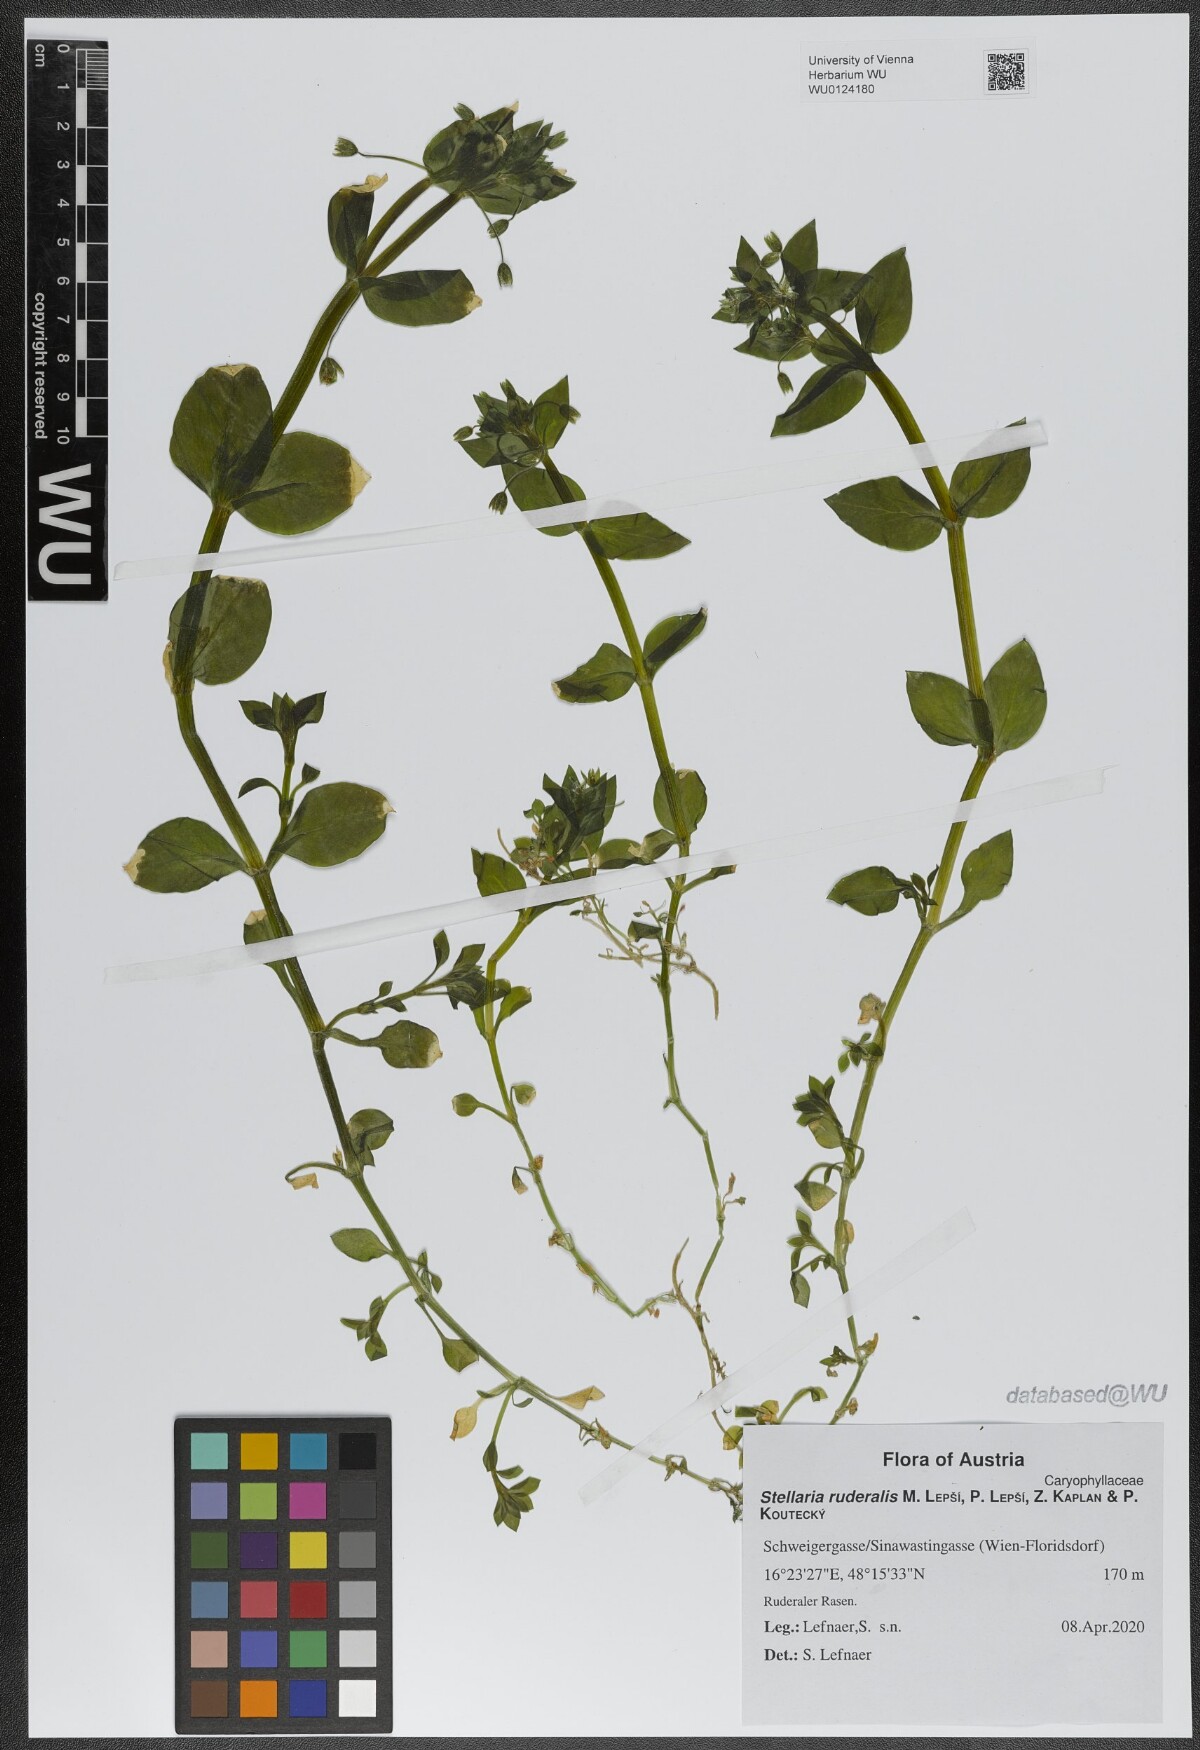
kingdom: Plantae
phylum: Tracheophyta
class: Magnoliopsida
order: Caryophyllales
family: Caryophyllaceae
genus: Stellaria
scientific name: Stellaria ruderalis
